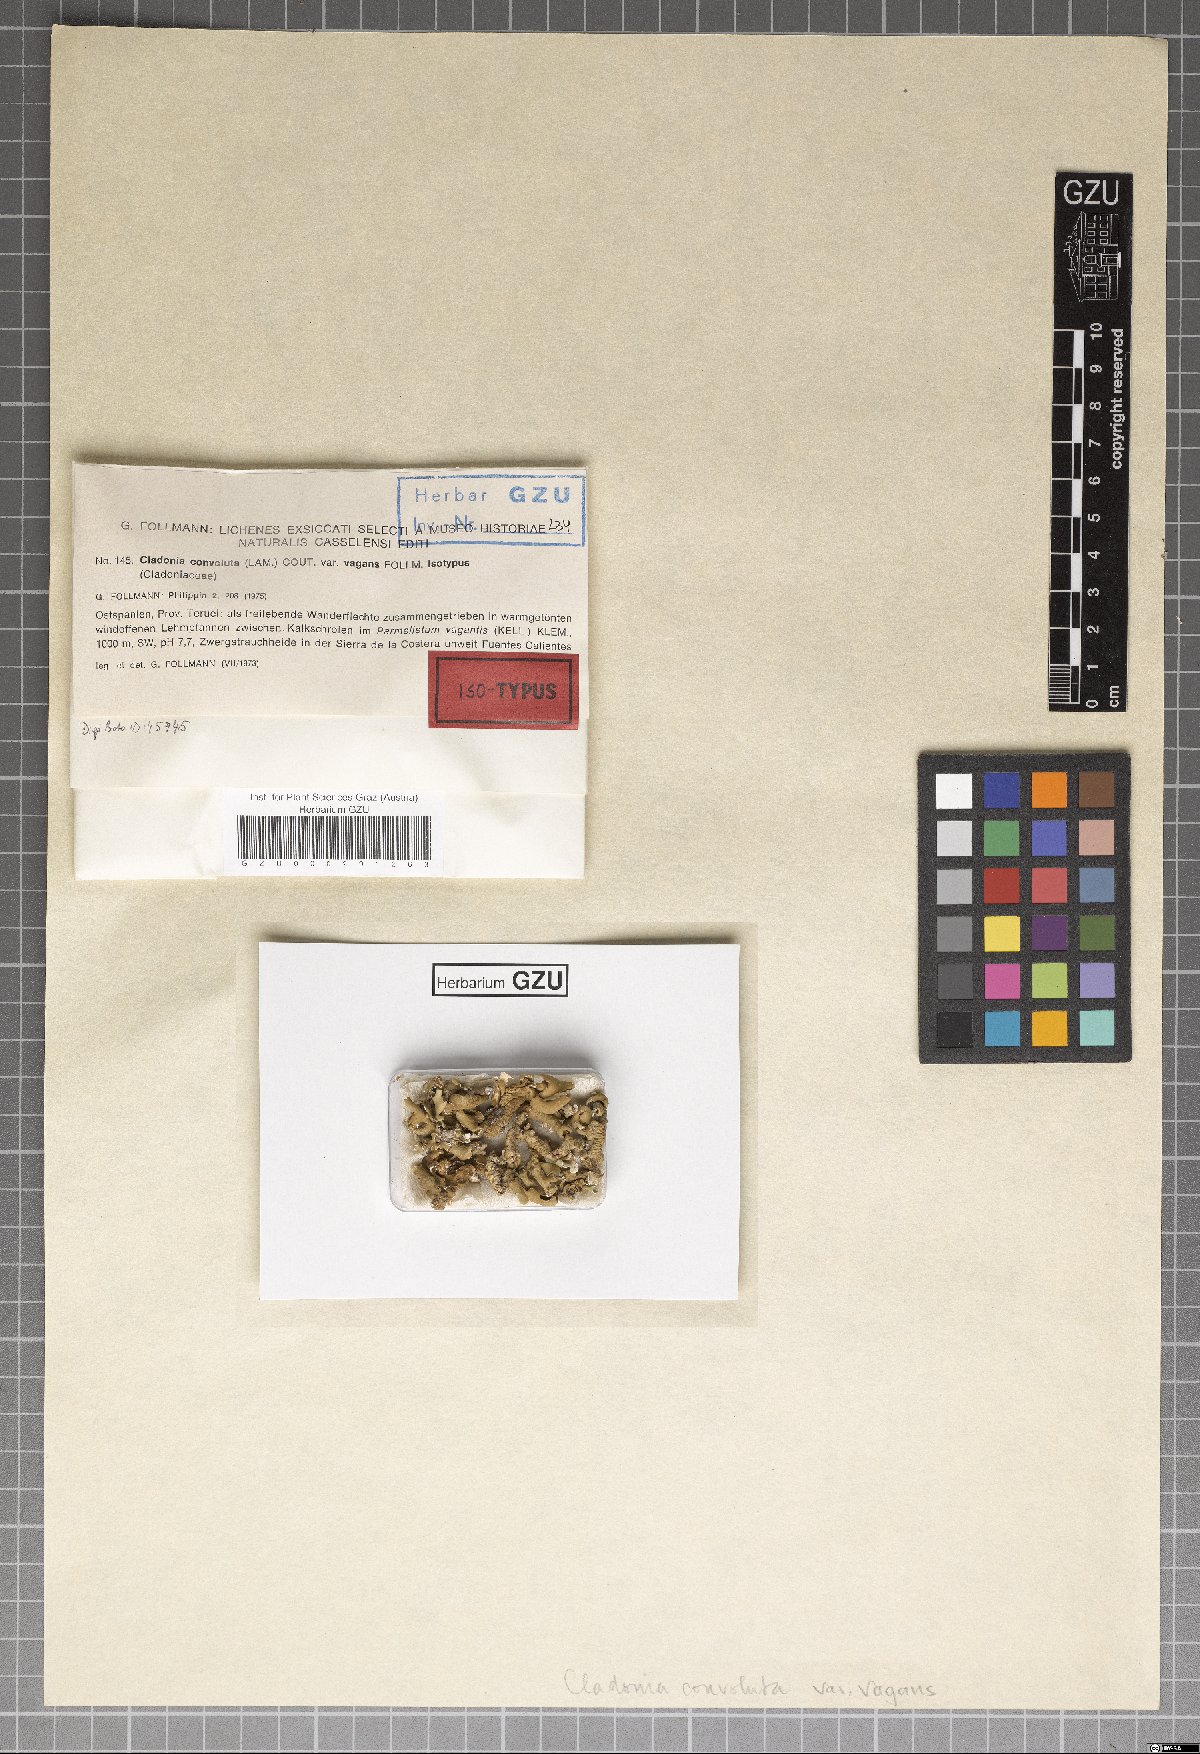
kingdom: Fungi
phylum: Ascomycota
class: Lecanoromycetes
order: Lecanorales
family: Cladoniaceae
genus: Cladonia
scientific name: Cladonia foliacea
